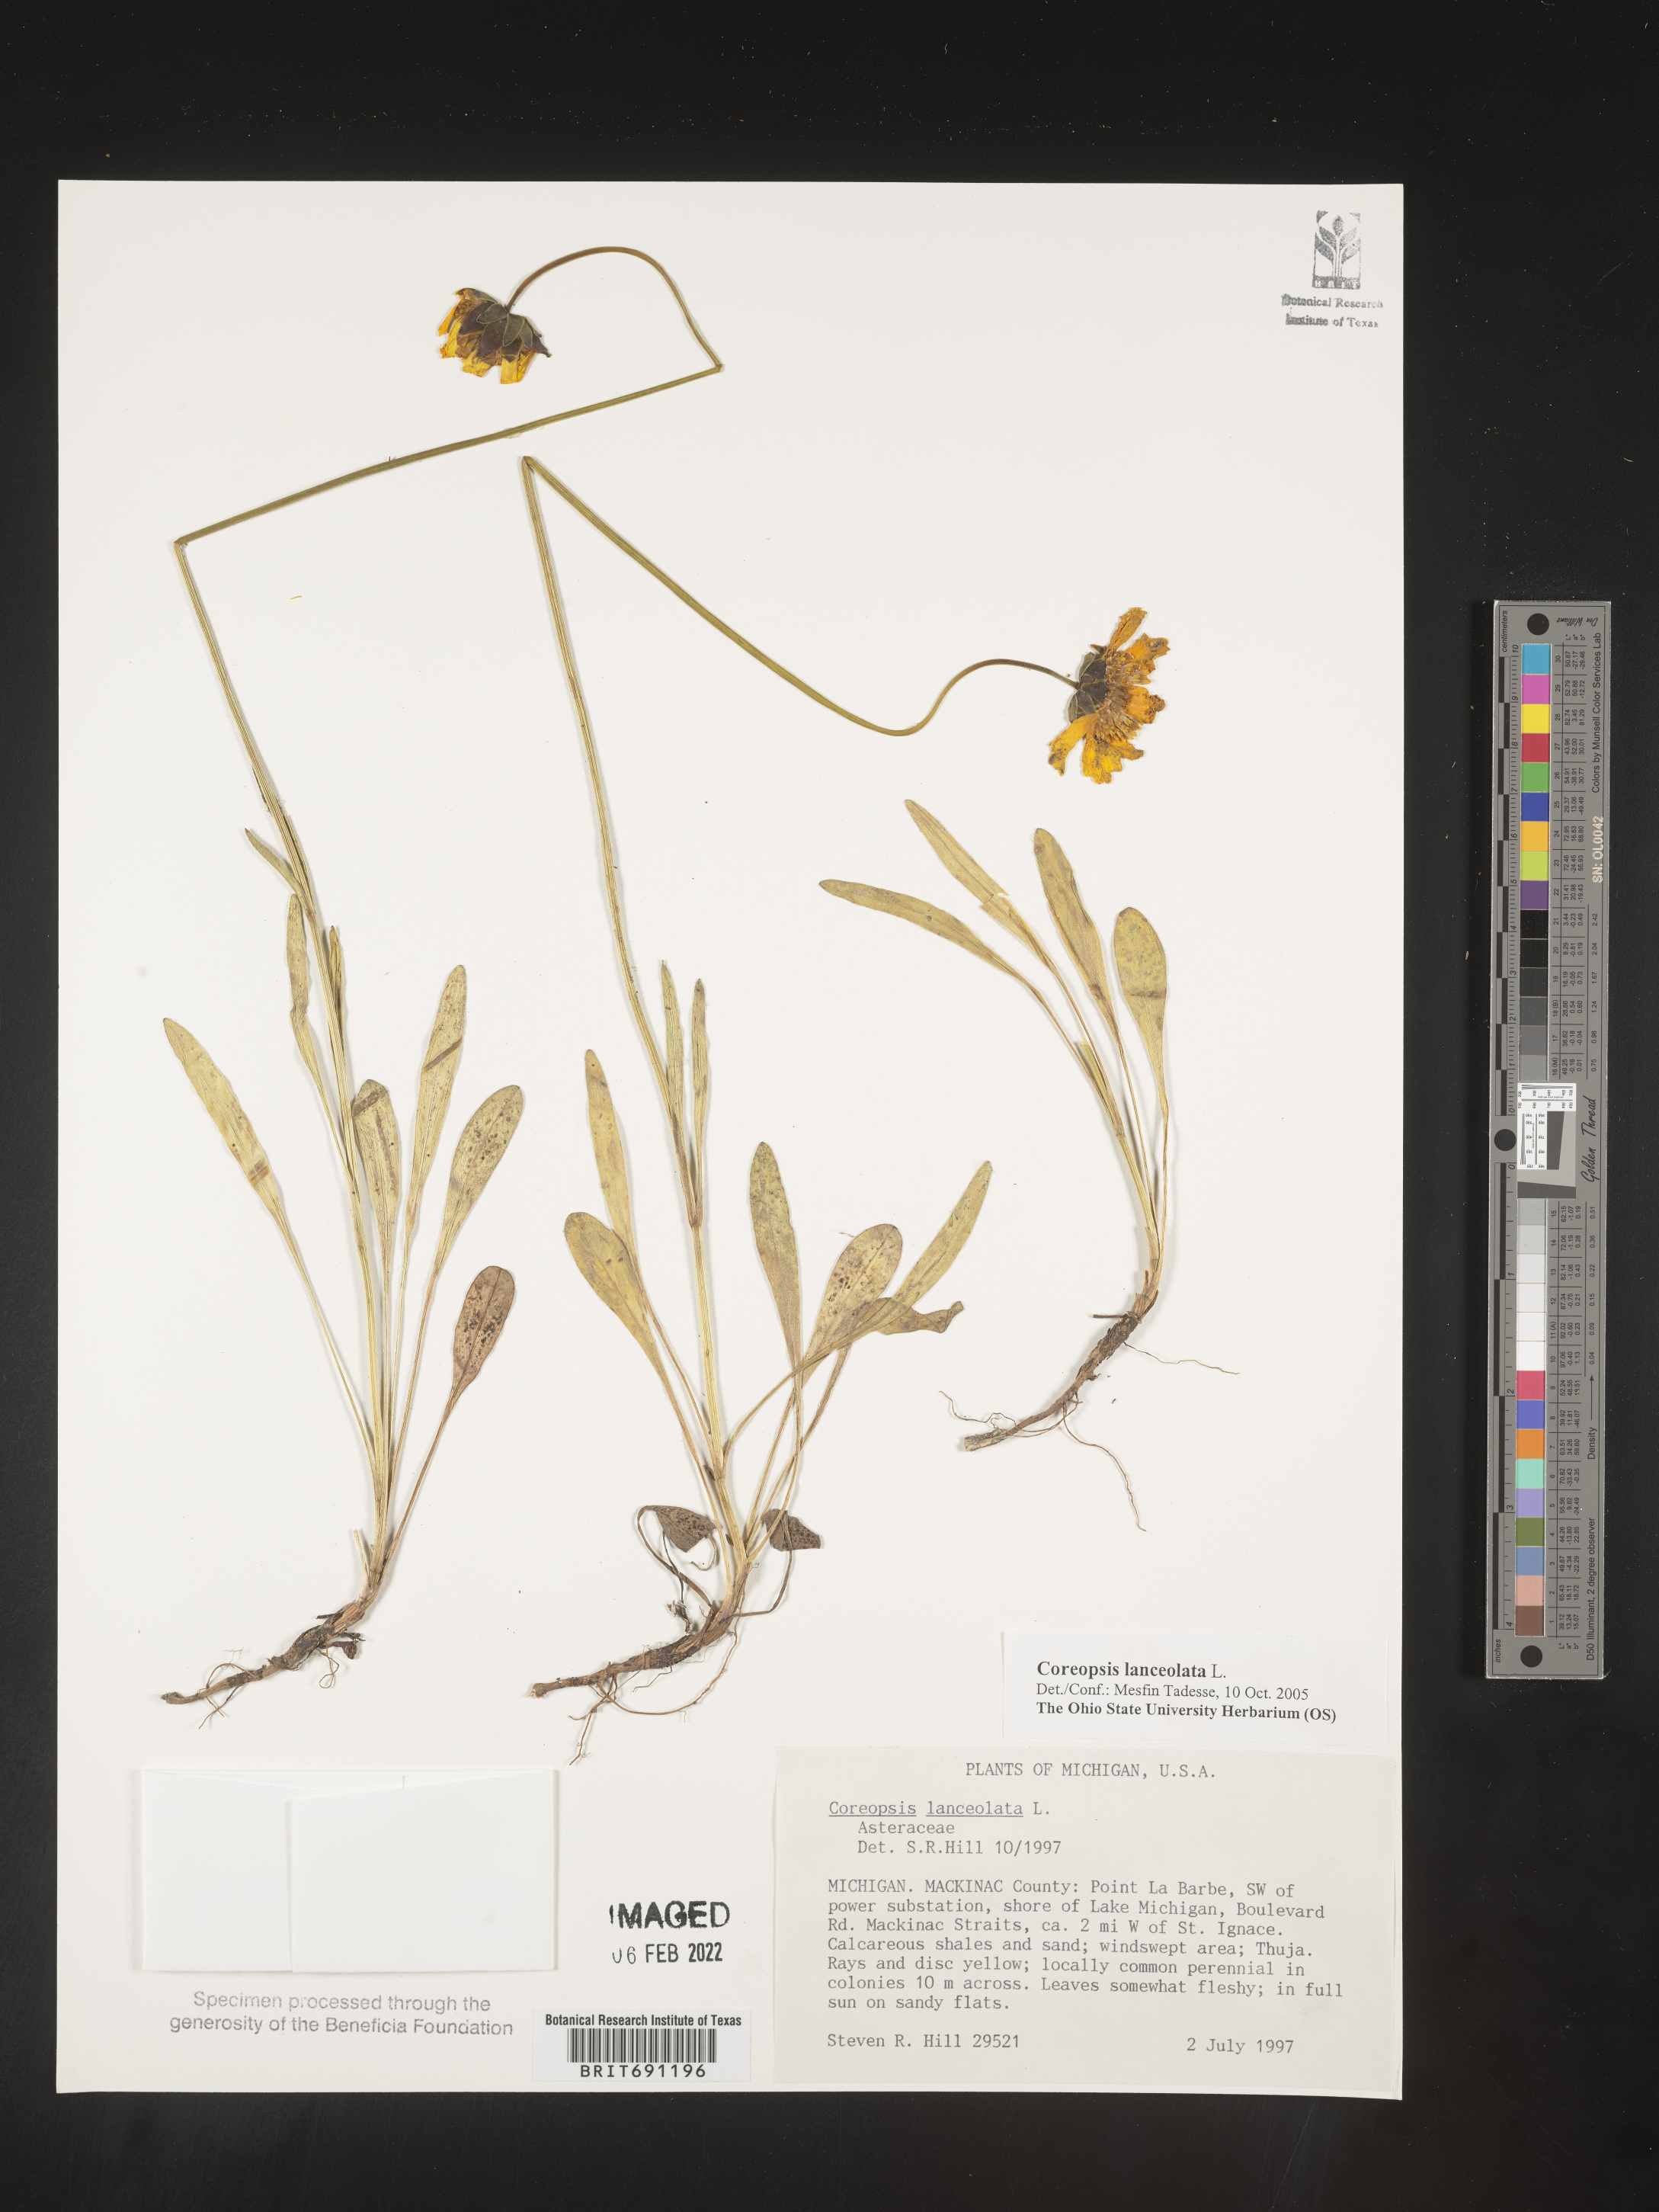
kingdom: Plantae
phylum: Tracheophyta
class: Magnoliopsida
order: Asterales
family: Asteraceae
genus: Coreopsis
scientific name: Coreopsis lanceolata
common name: Garden coreopsis
